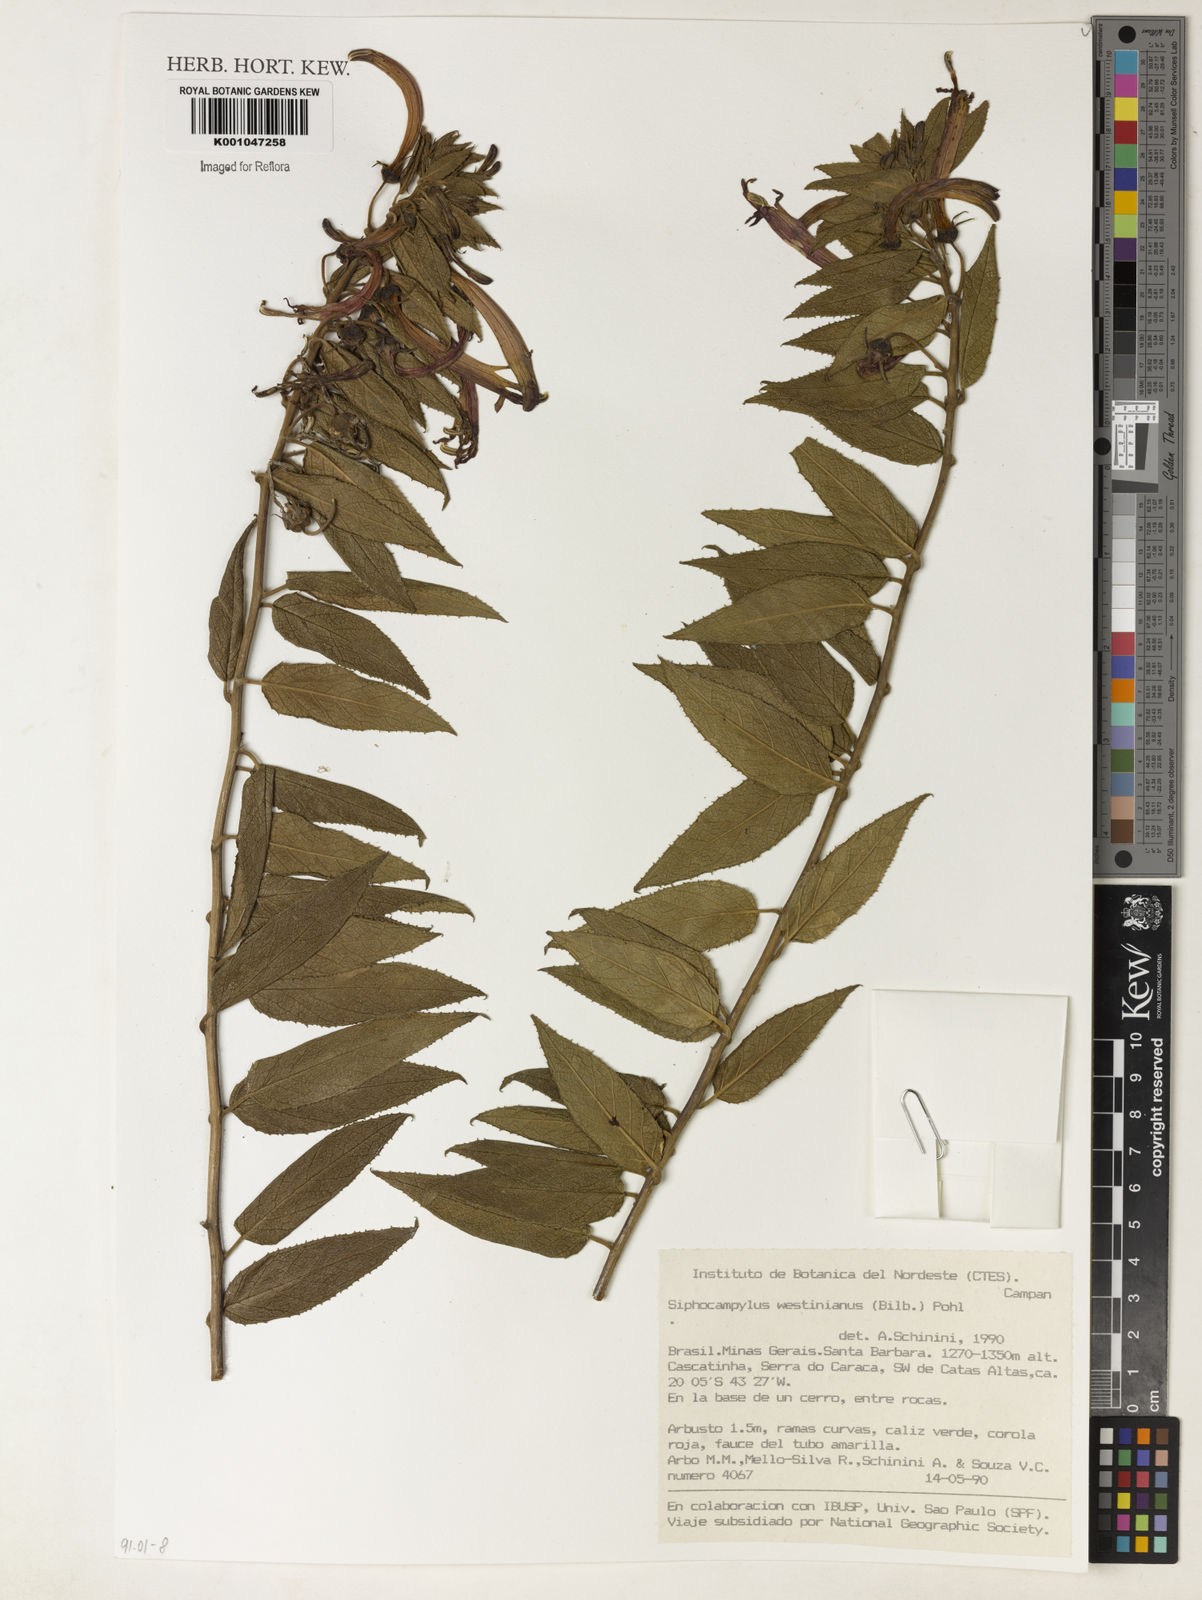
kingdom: Plantae
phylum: Tracheophyta
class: Magnoliopsida
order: Asterales
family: Campanulaceae
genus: Siphocampylus
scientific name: Siphocampylus westinianus
